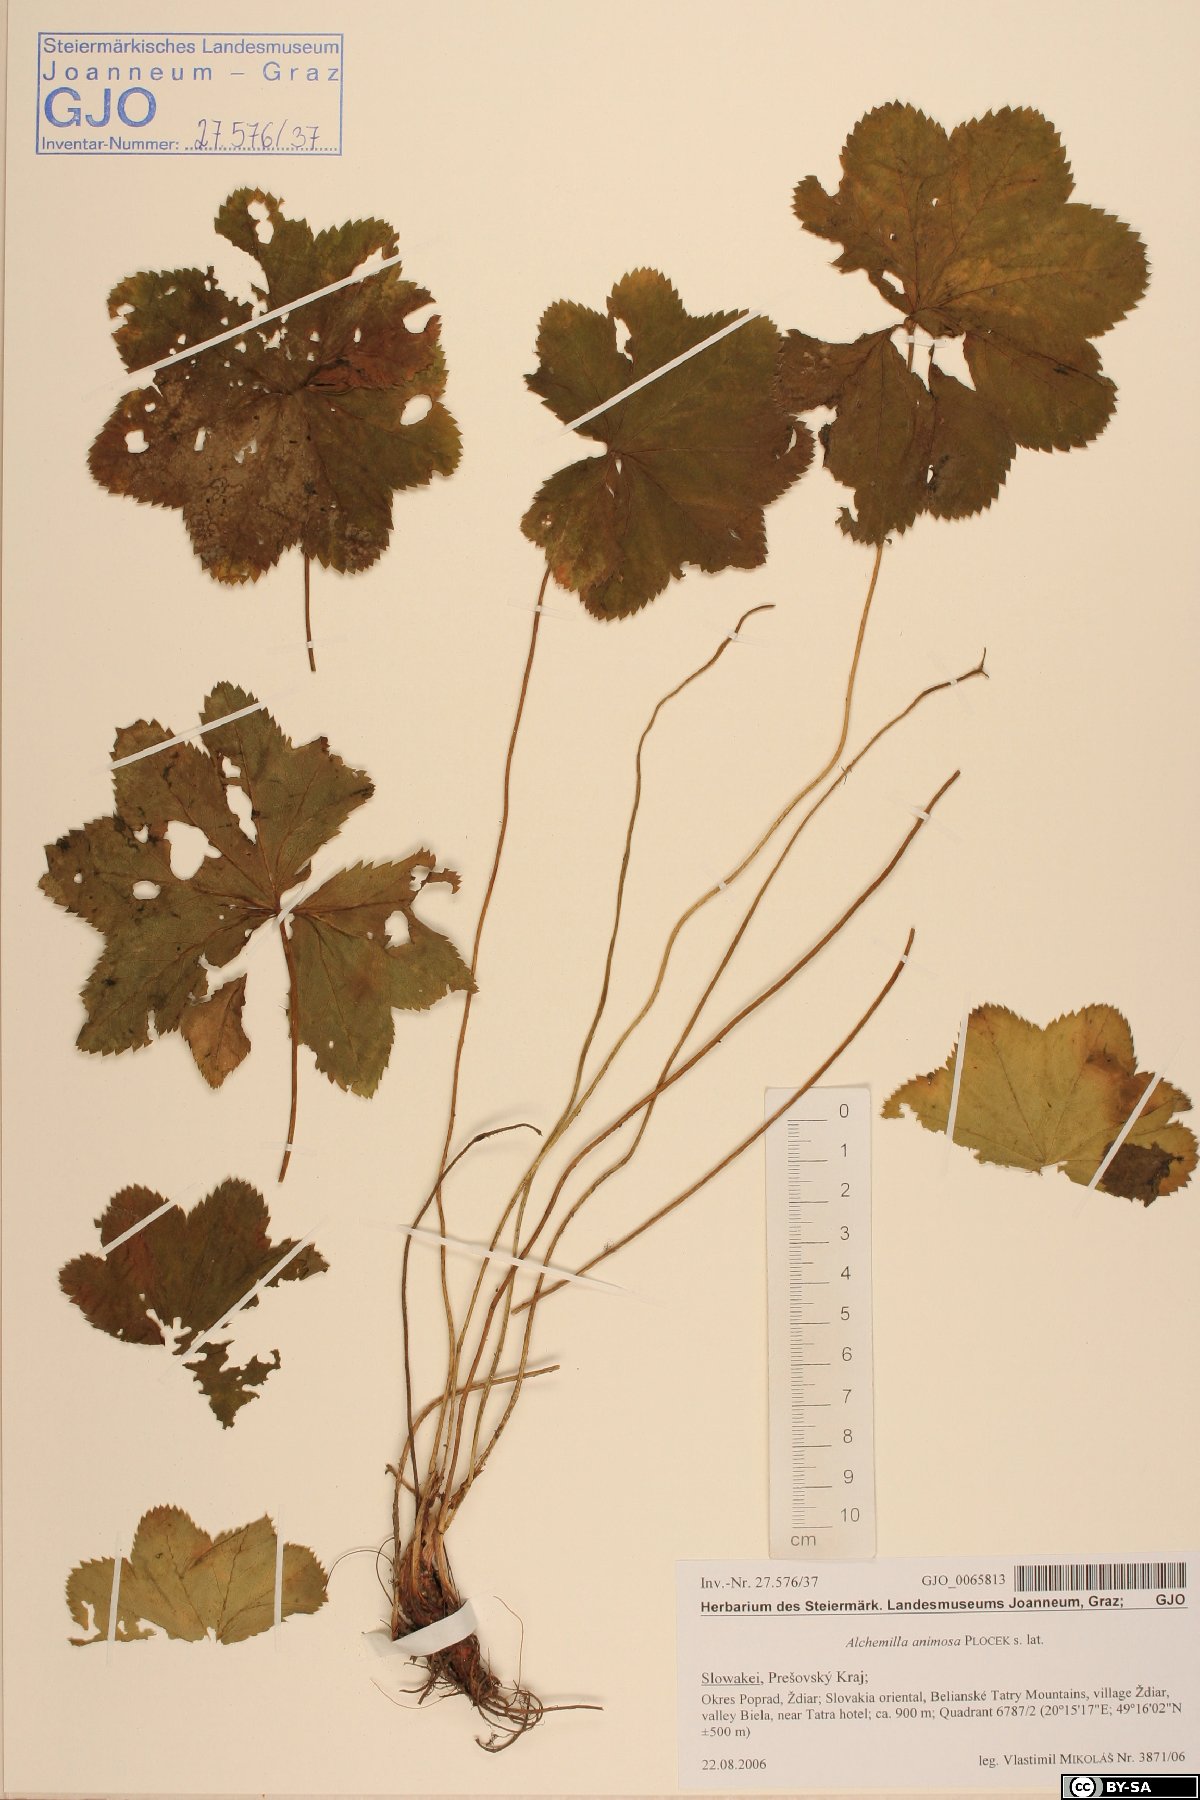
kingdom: Plantae
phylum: Tracheophyta
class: Magnoliopsida
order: Rosales
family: Rosaceae
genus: Alchemilla
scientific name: Alchemilla animosa
